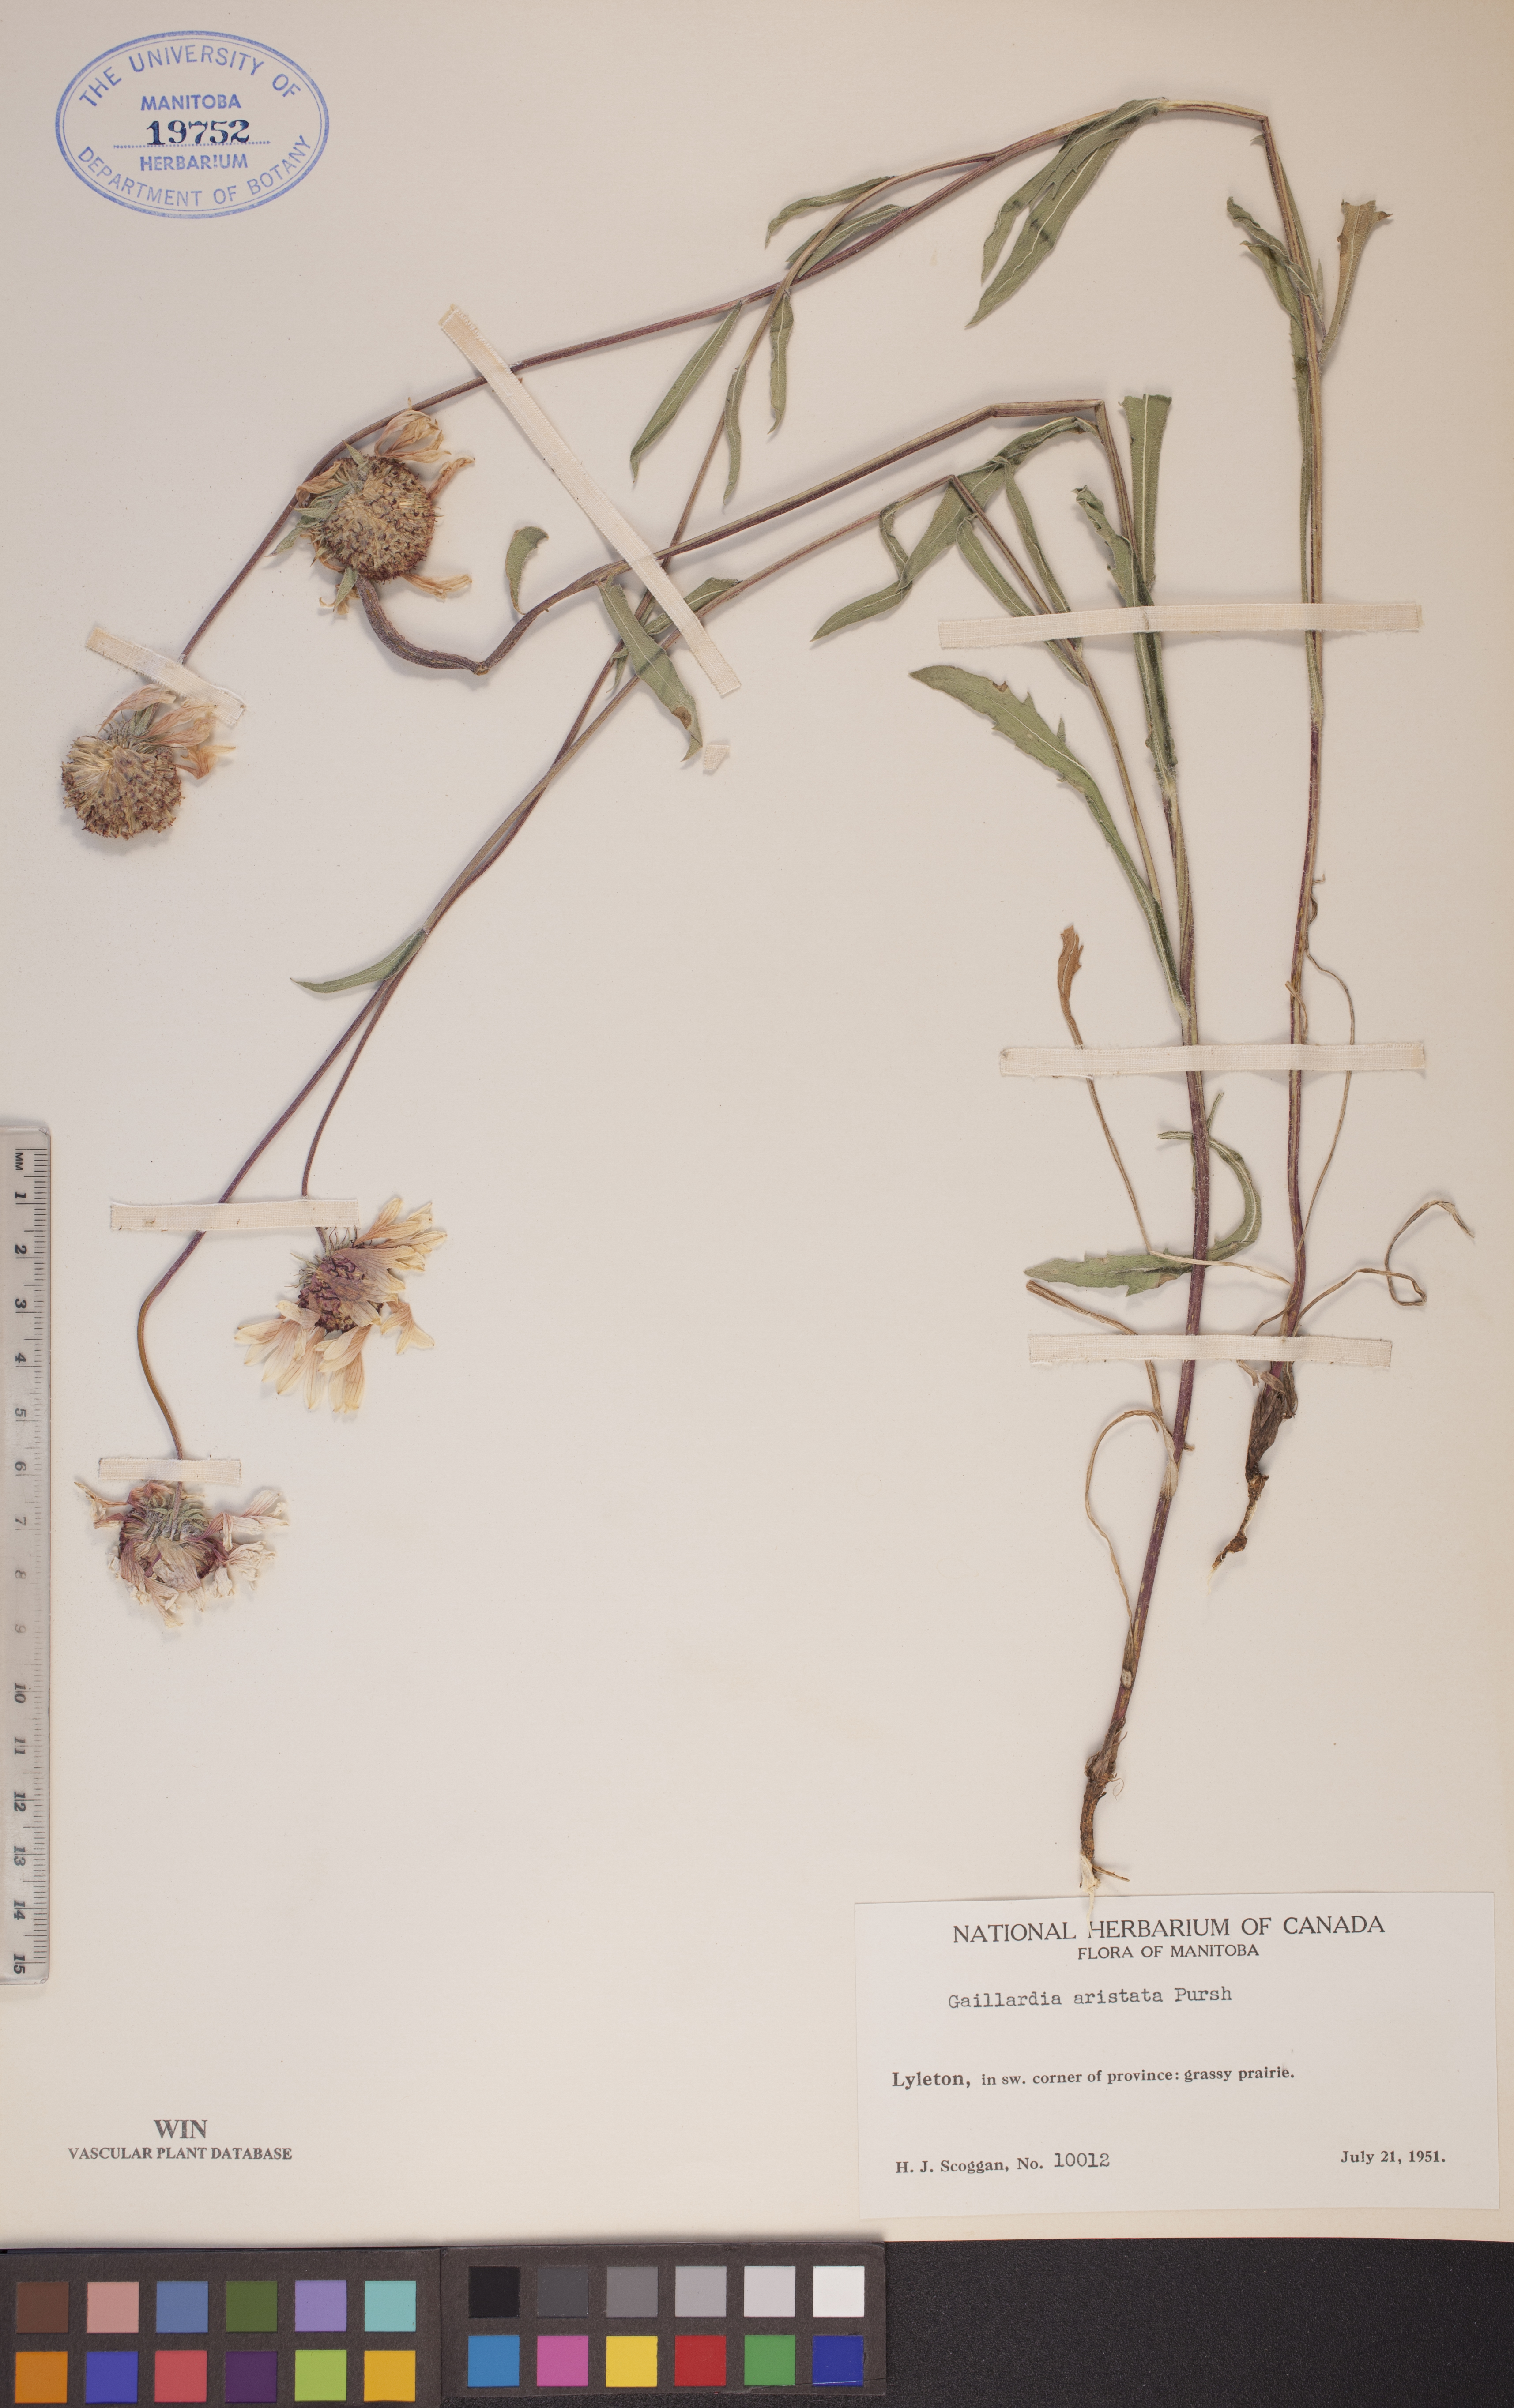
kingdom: Plantae
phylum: Tracheophyta
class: Magnoliopsida
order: Asterales
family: Asteraceae
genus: Gaillardia
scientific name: Gaillardia aristata
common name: Blanket-flower
